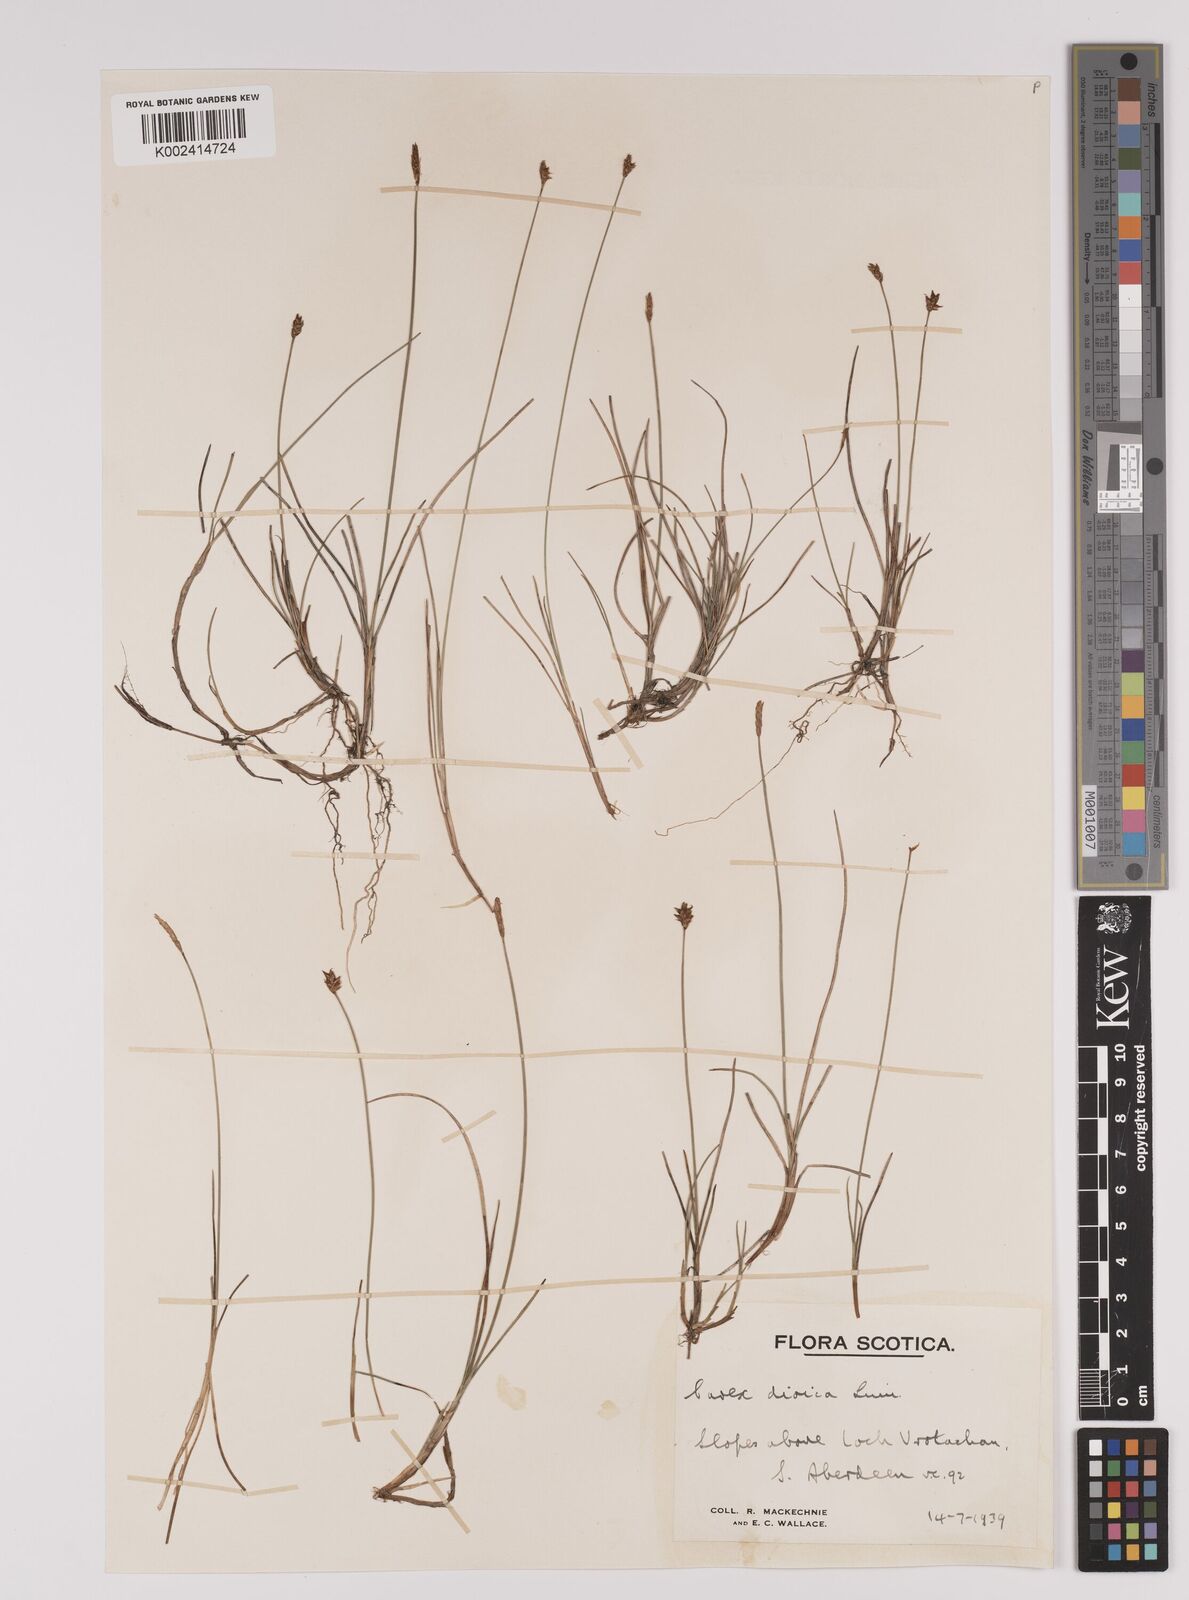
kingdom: Plantae
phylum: Tracheophyta
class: Liliopsida
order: Poales
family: Cyperaceae
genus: Carex
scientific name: Carex dioica
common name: Dioecious sedge
